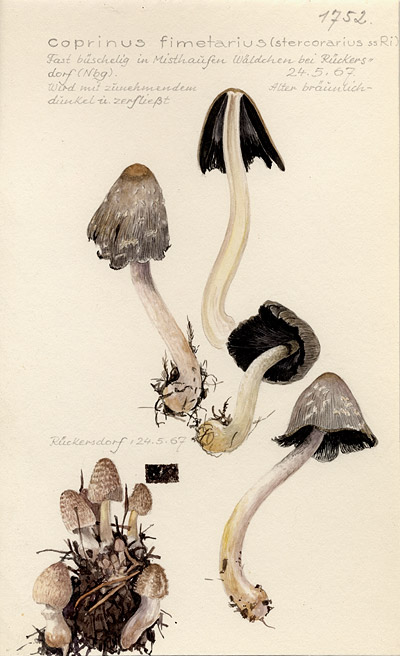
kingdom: Fungi
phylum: Basidiomycota
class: Agaricomycetes
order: Agaricales
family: Psathyrellaceae
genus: Coprinopsis
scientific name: Coprinopsis cinerea
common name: Grey inkcap
